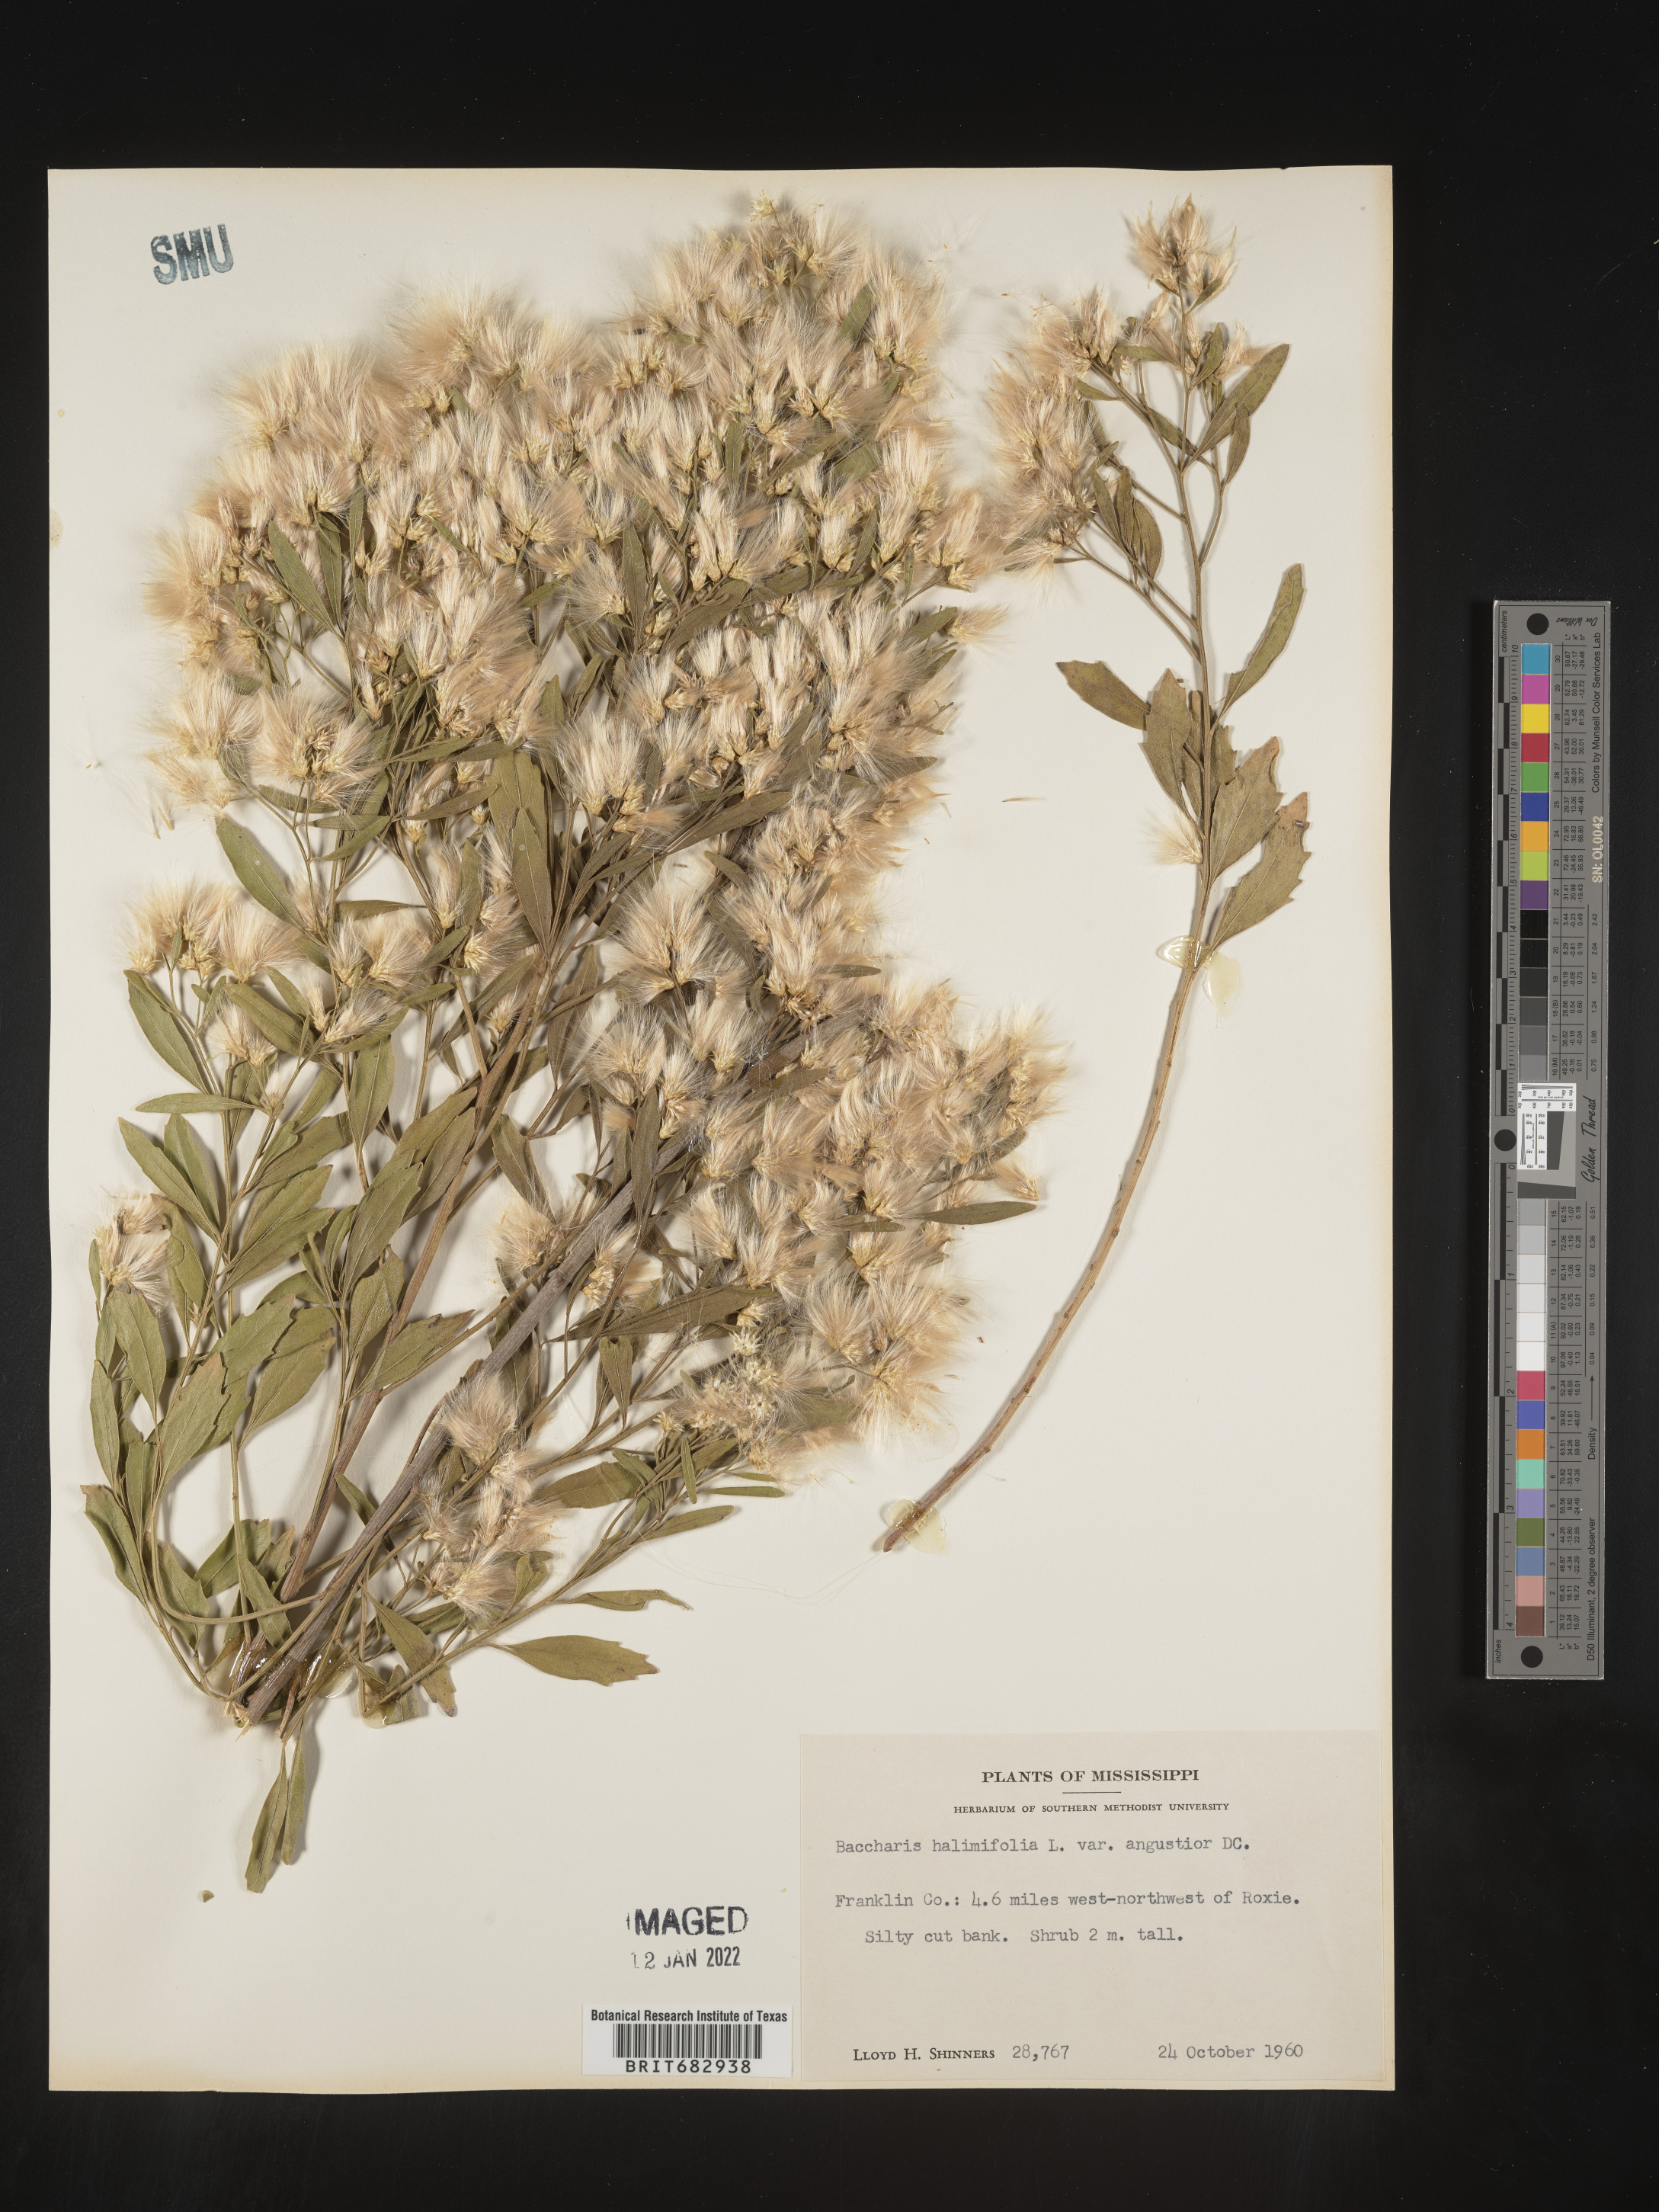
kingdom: Plantae
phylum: Tracheophyta
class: Magnoliopsida
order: Asterales
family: Asteraceae
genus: Nidorella
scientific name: Nidorella ivifolia
